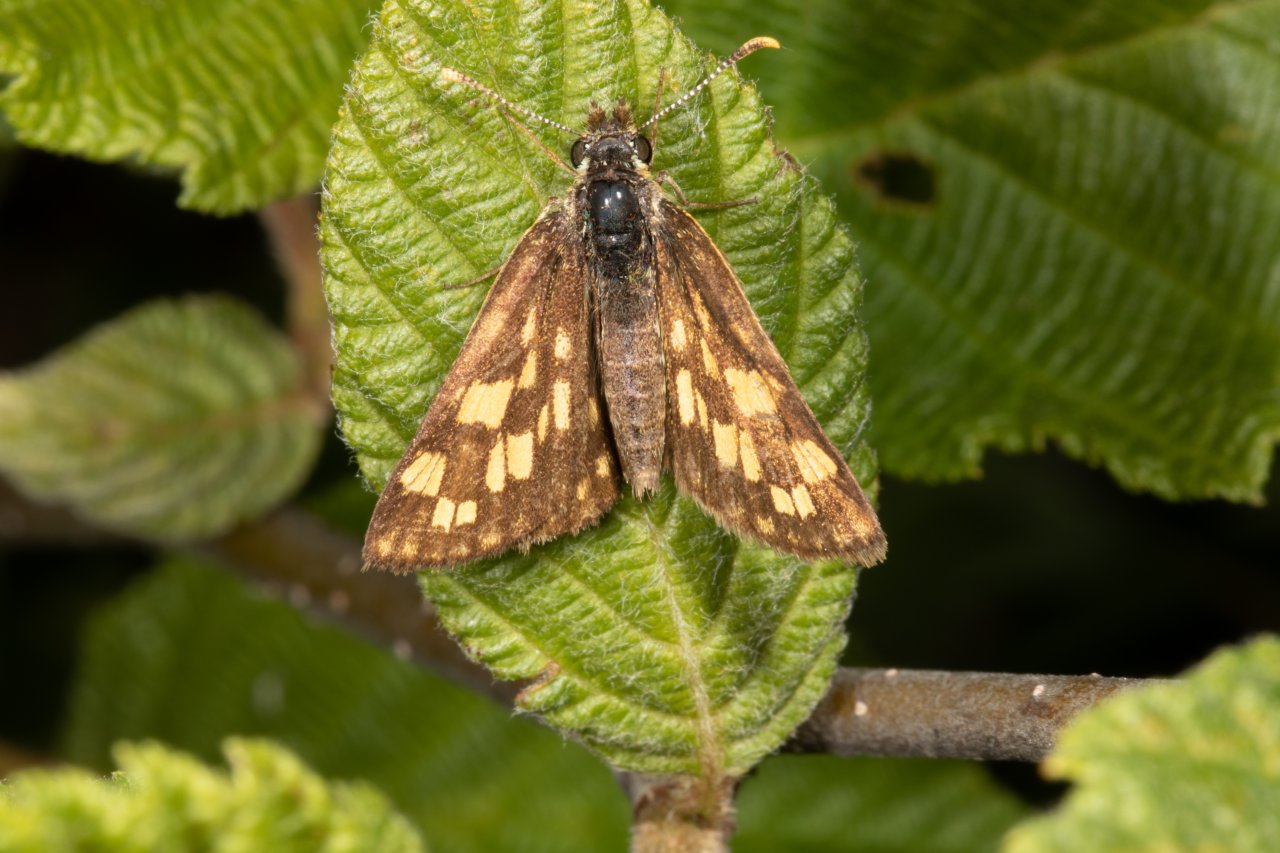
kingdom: Animalia
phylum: Arthropoda
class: Insecta
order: Lepidoptera
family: Hesperiidae
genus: Carterocephalus
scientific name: Carterocephalus palaemon
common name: Chequered Skipper
